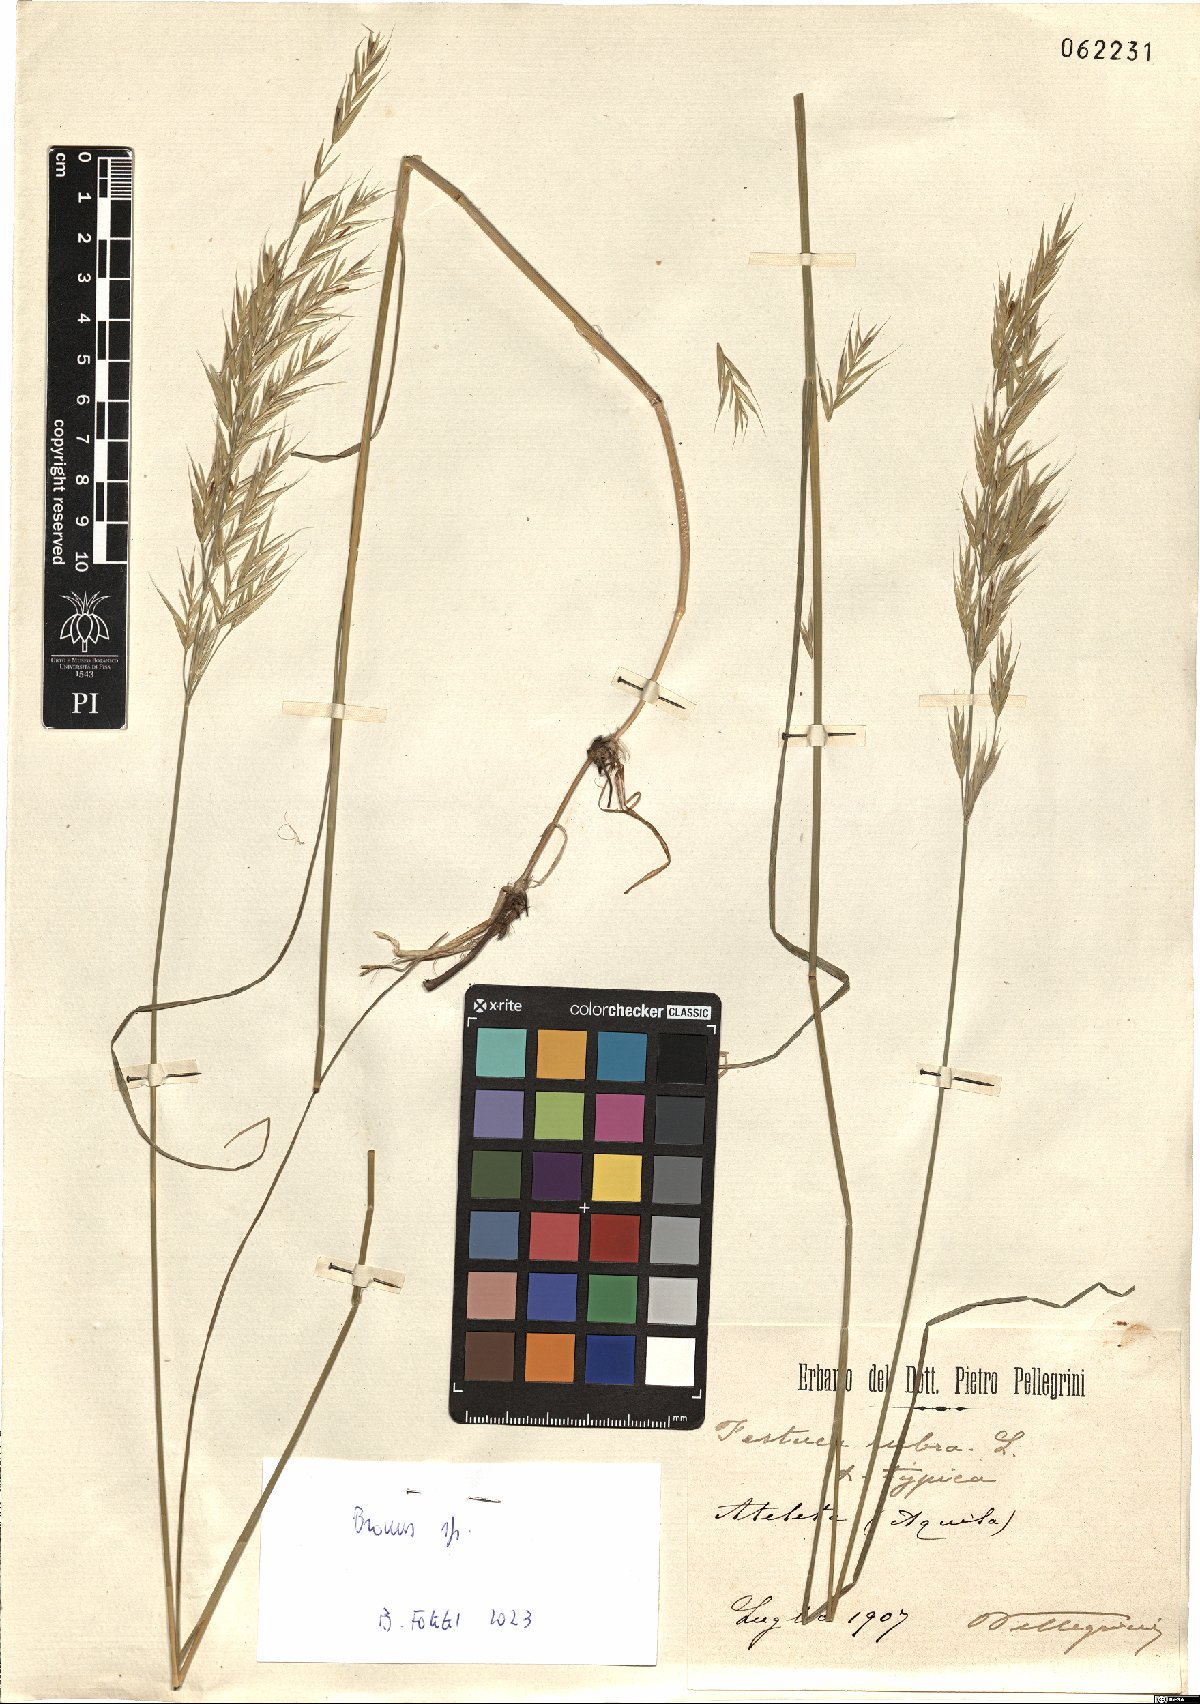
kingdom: Plantae
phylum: Tracheophyta
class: Liliopsida
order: Poales
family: Poaceae
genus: Bromus
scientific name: Bromus
